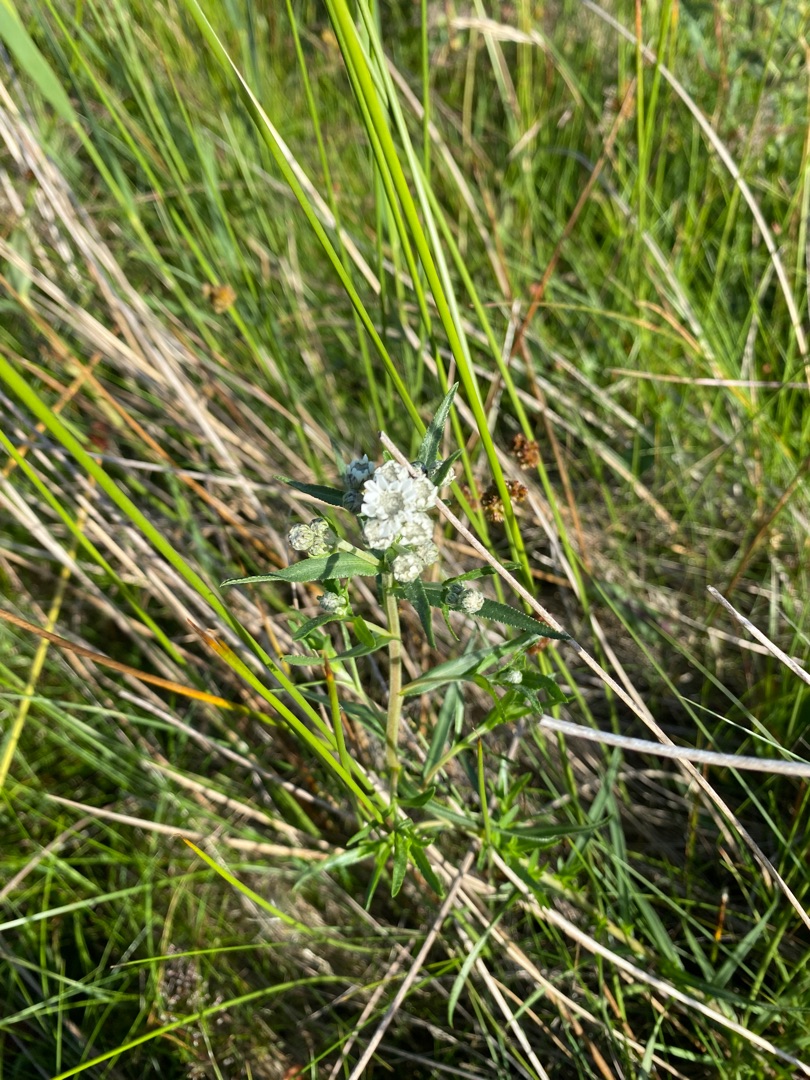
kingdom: Plantae
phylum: Tracheophyta
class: Magnoliopsida
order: Asterales
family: Asteraceae
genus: Achillea
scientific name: Achillea ptarmica
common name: Nyse-røllike
